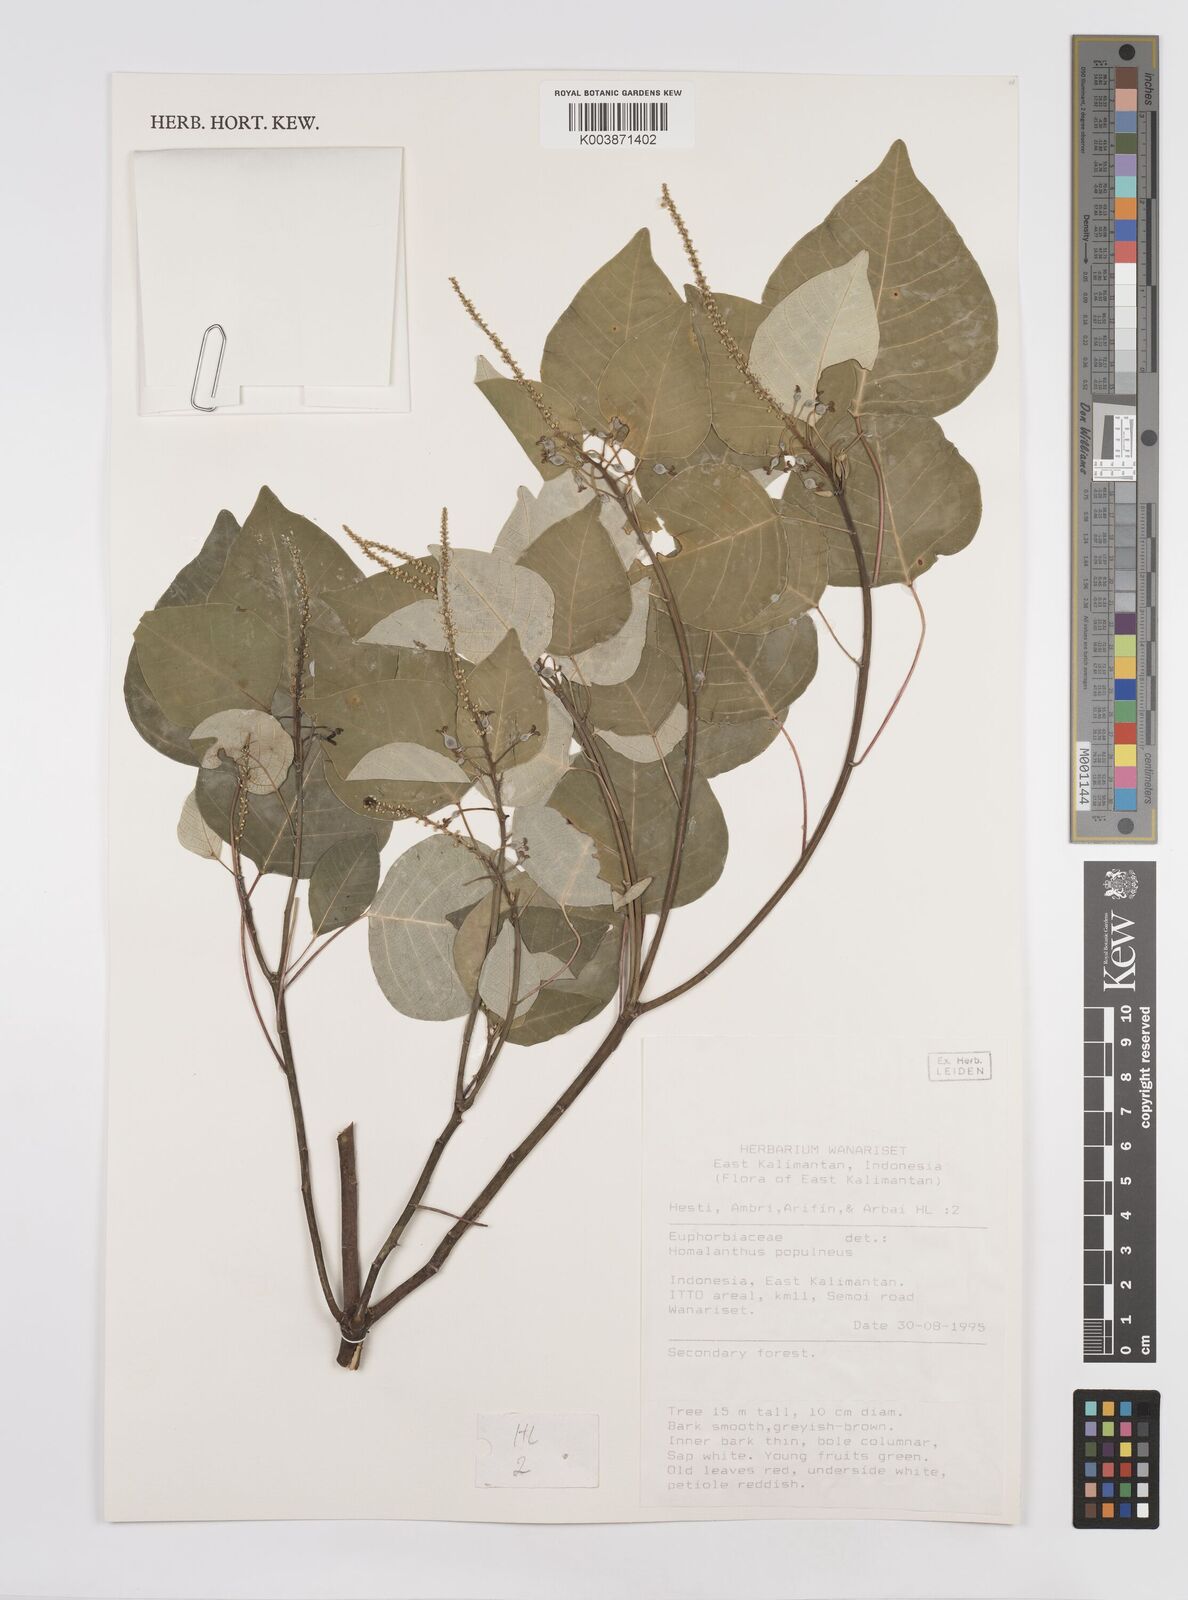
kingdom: Plantae
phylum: Tracheophyta
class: Magnoliopsida
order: Malpighiales
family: Euphorbiaceae
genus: Homalanthus
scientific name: Homalanthus populneus
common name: Spurge
